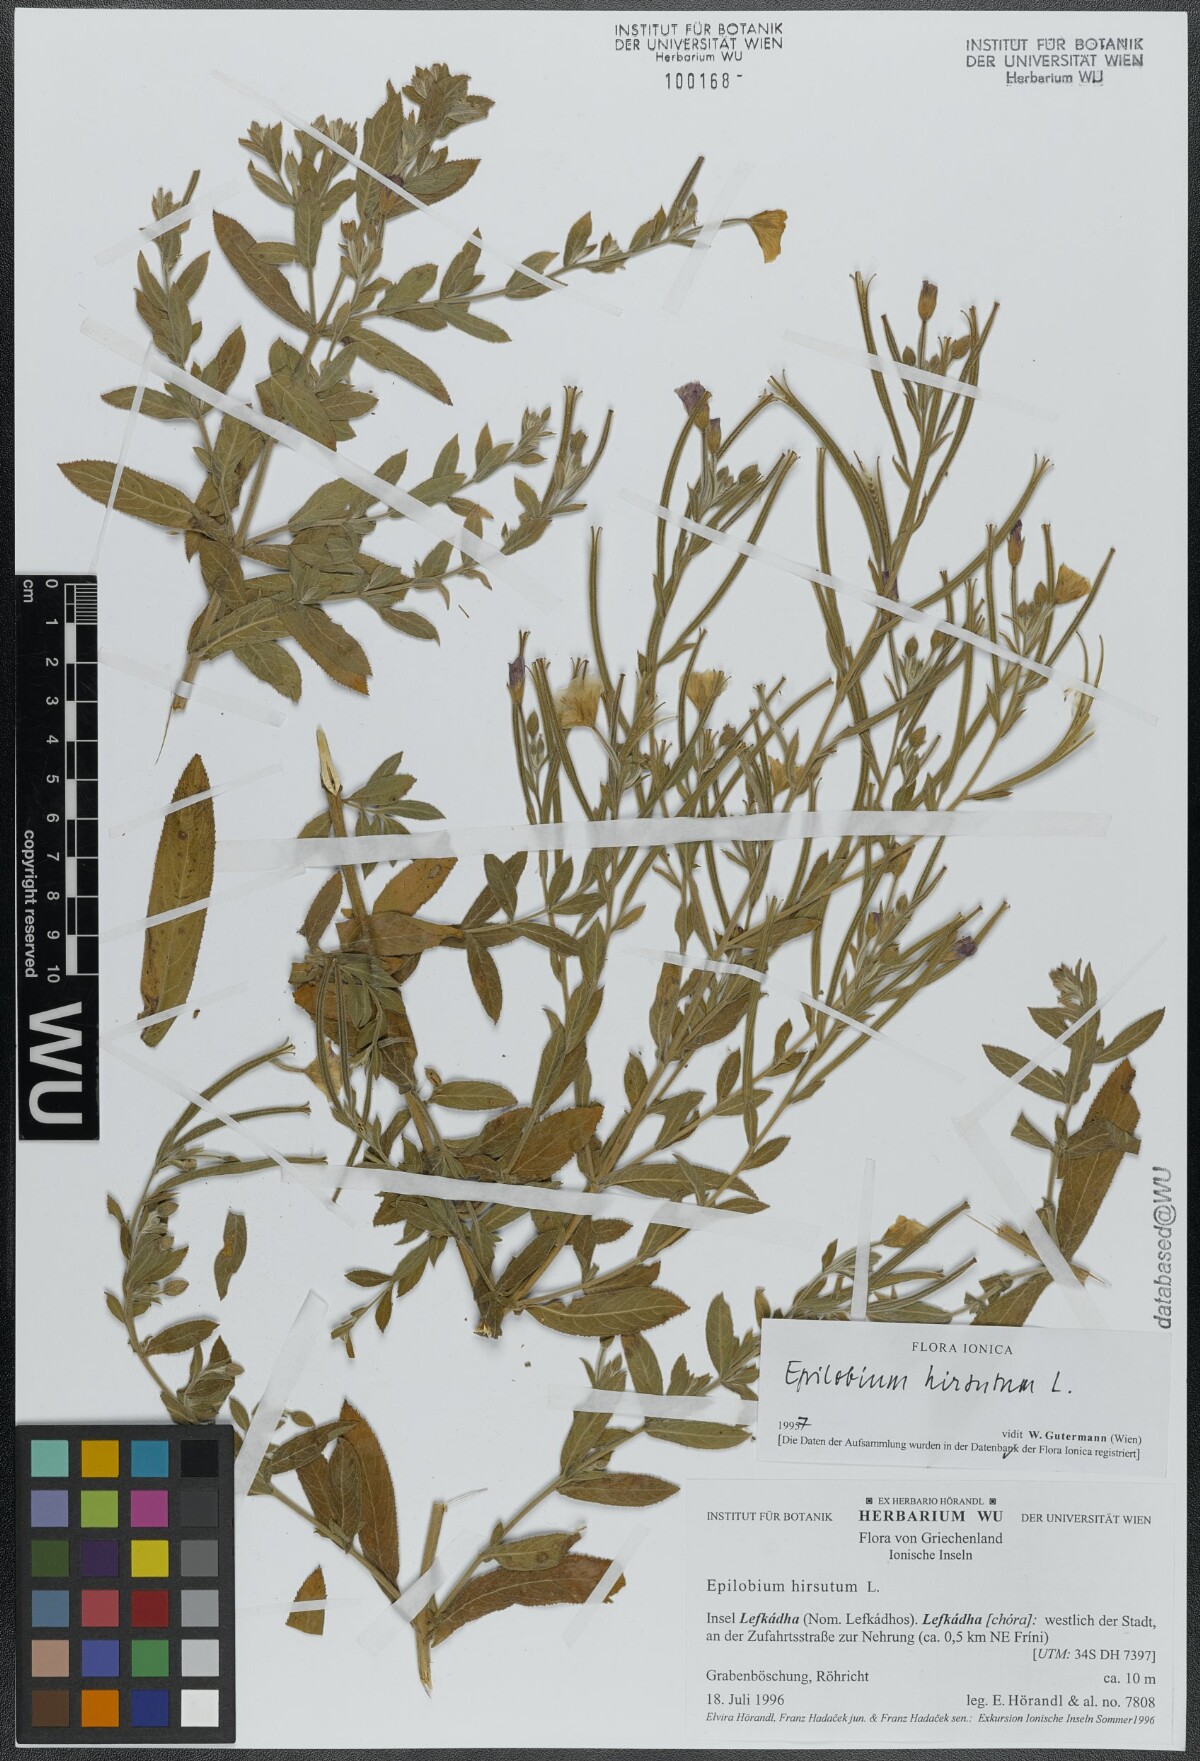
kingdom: Plantae
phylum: Tracheophyta
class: Magnoliopsida
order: Myrtales
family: Onagraceae
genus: Epilobium
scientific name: Epilobium hirsutum
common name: Great willowherb
